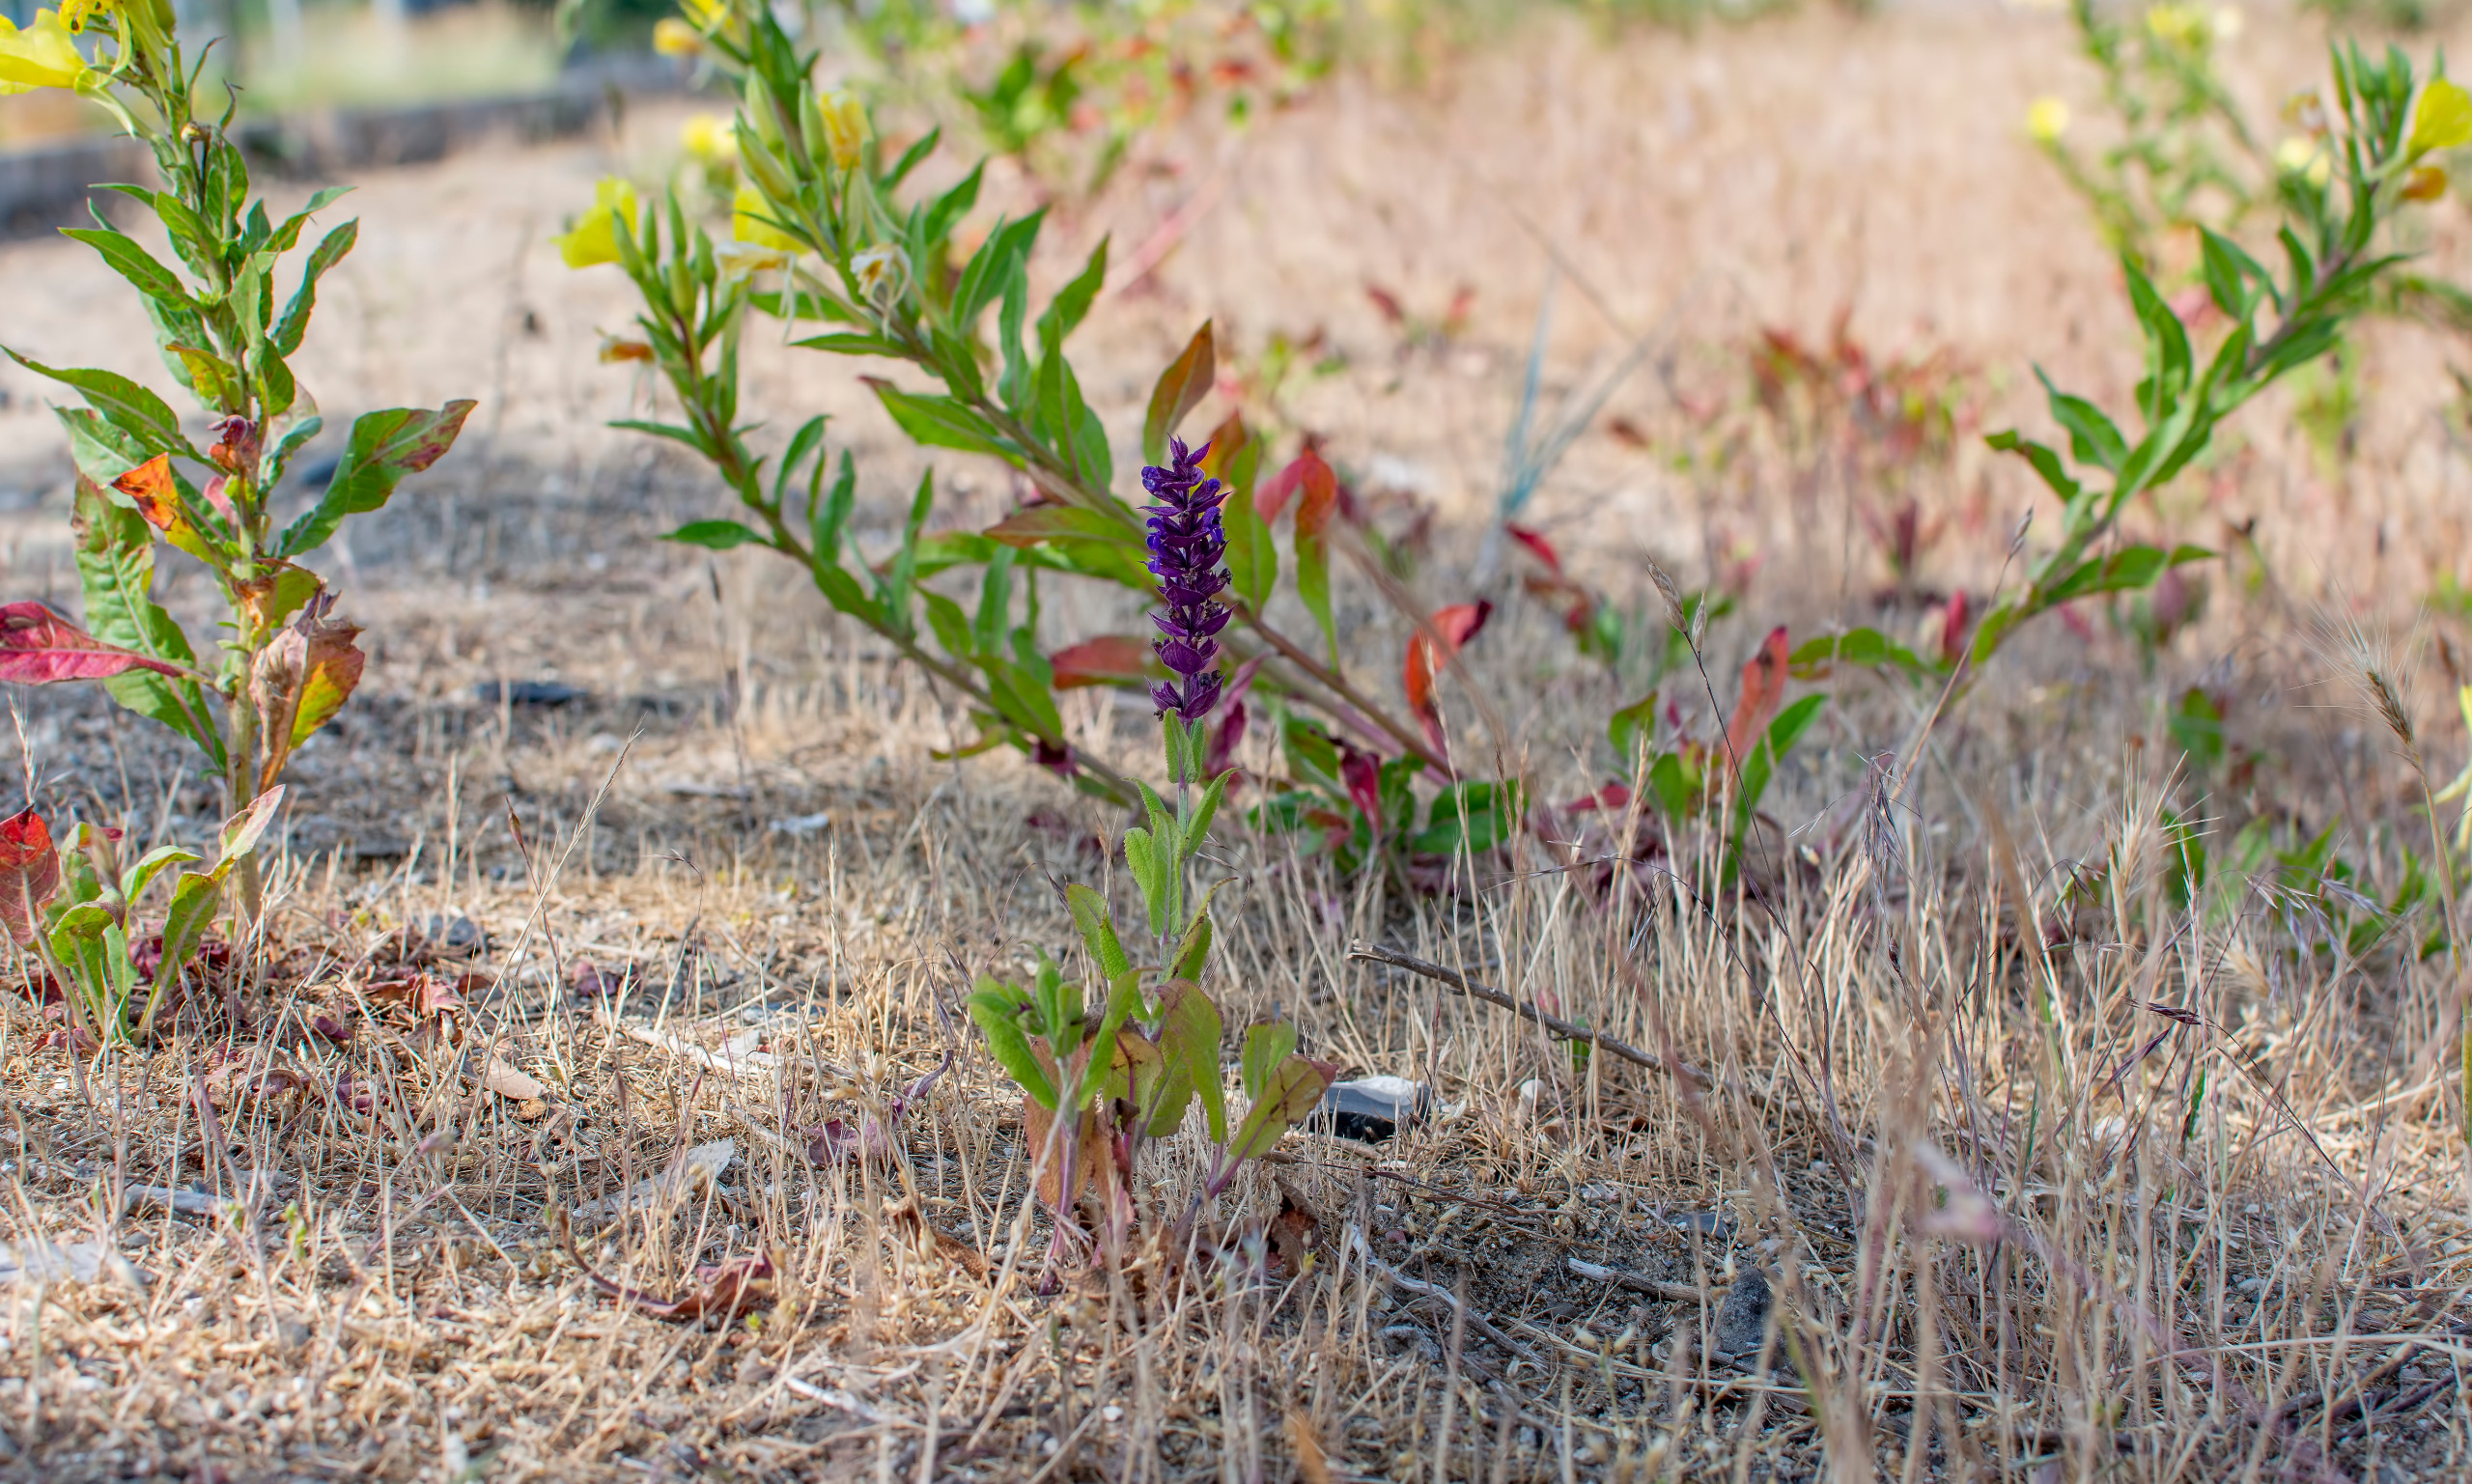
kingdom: Plantae
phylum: Tracheophyta
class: Magnoliopsida
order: Lamiales
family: Lamiaceae
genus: Salvia
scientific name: Salvia nemorosa
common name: Småblomstret salvie
